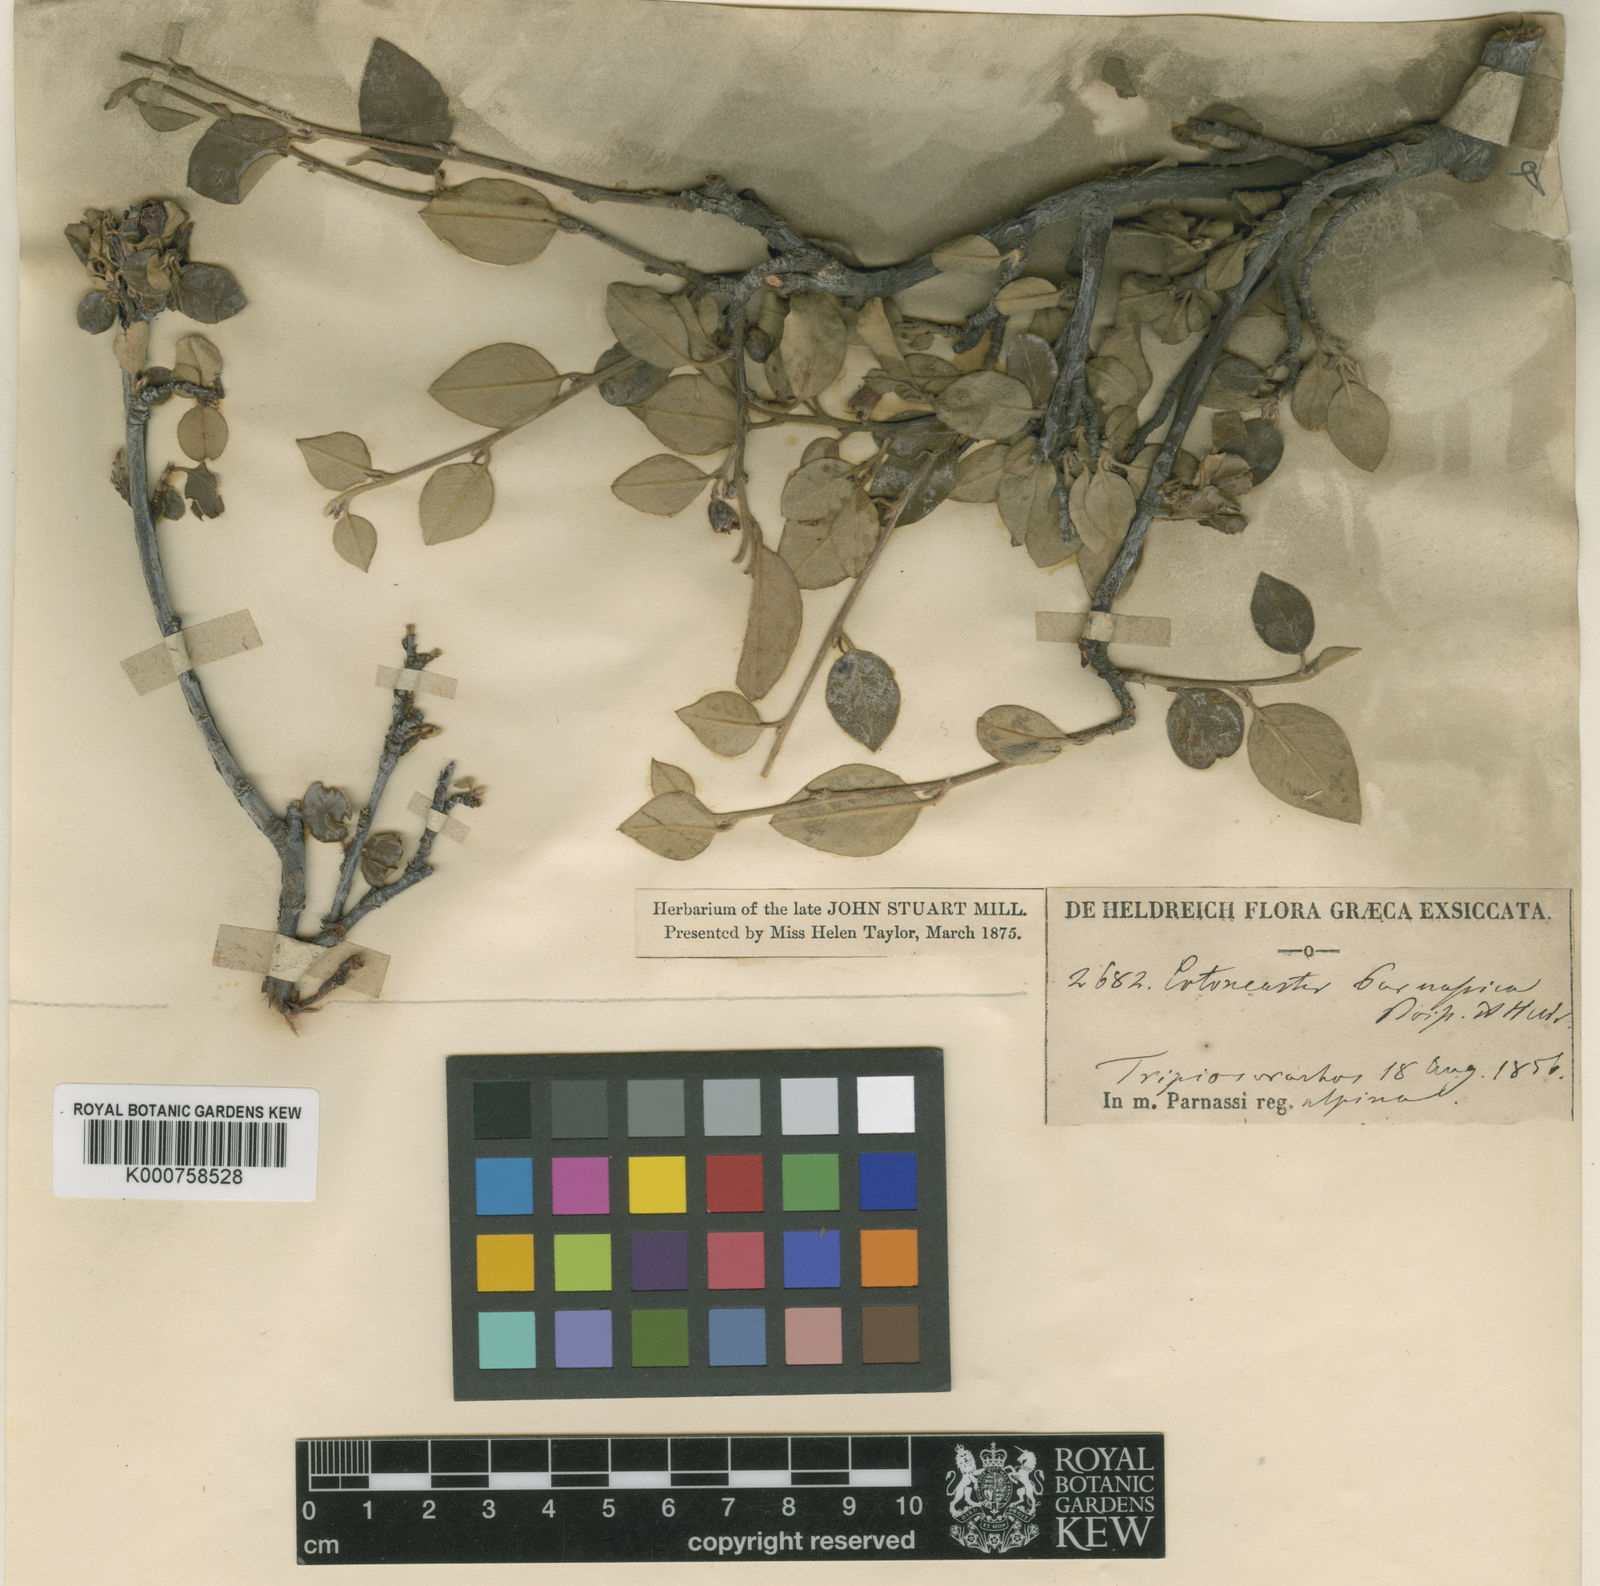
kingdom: Plantae
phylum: Tracheophyta
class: Magnoliopsida
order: Rosales
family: Rosaceae
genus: Cotoneaster
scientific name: Cotoneaster tomentosus
